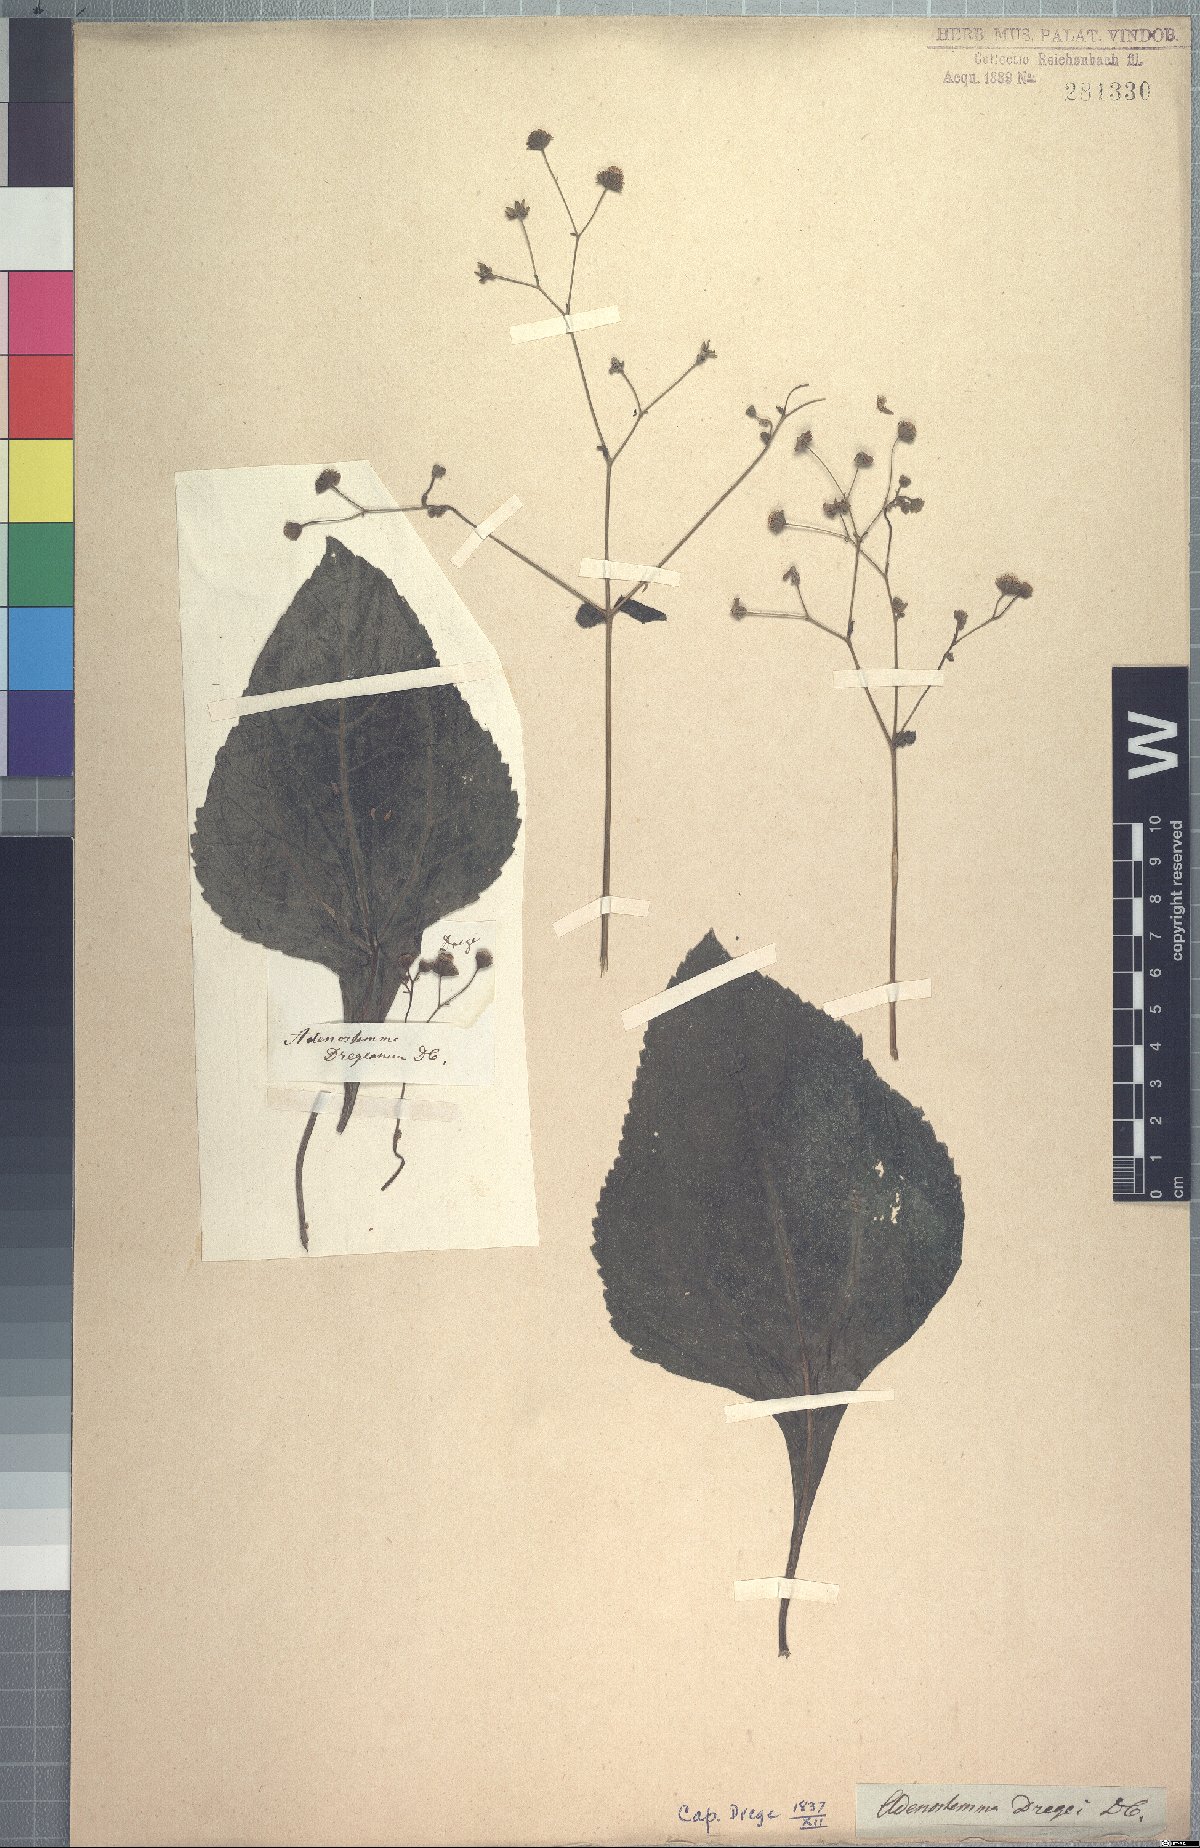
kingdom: Plantae
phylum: Tracheophyta
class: Magnoliopsida
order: Asterales
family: Asteraceae
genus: Adenostemma
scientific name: Adenostemma viscosum
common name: Dungweed
